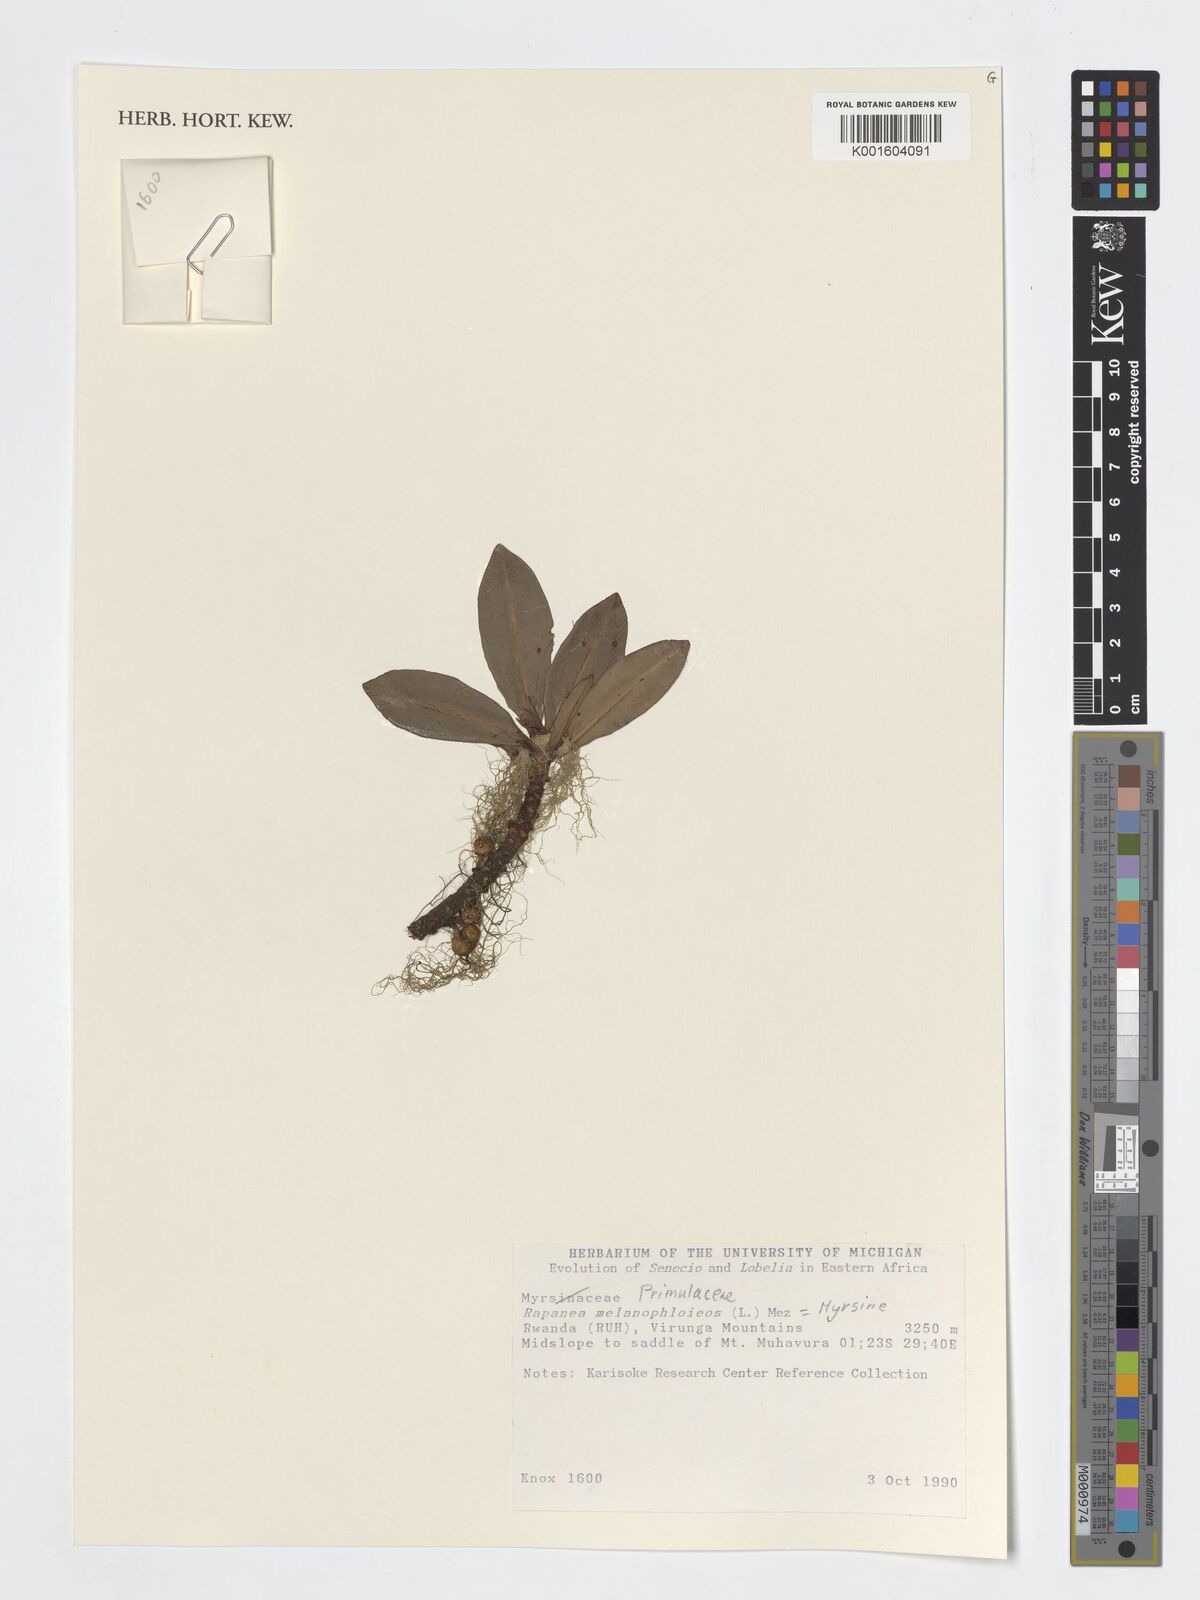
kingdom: Plantae
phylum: Tracheophyta
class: Magnoliopsida
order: Ericales
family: Primulaceae
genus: Myrsine
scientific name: Myrsine melanophloeos
